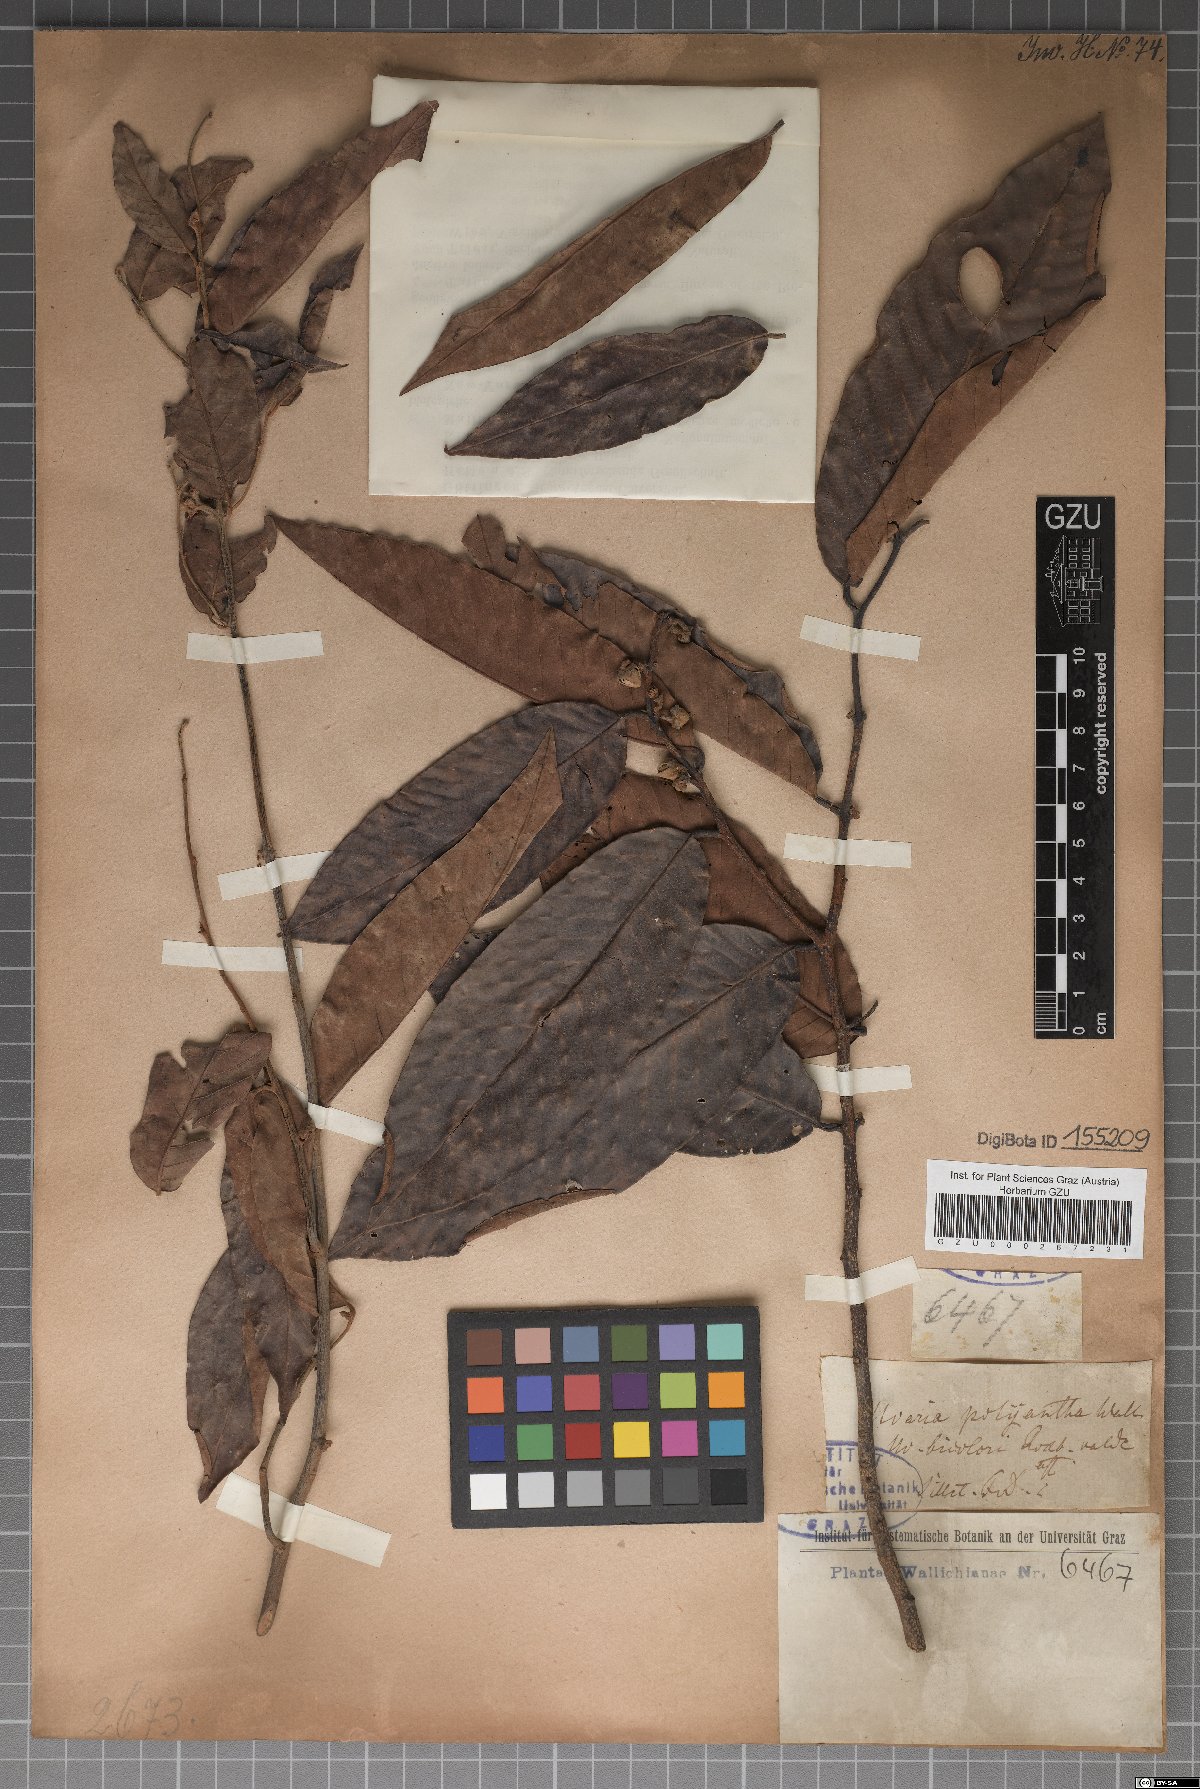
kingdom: Plantae
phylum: Tracheophyta
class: Magnoliopsida
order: Magnoliales
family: Annonaceae
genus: Fissistigma
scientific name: Fissistigma polyanthum
